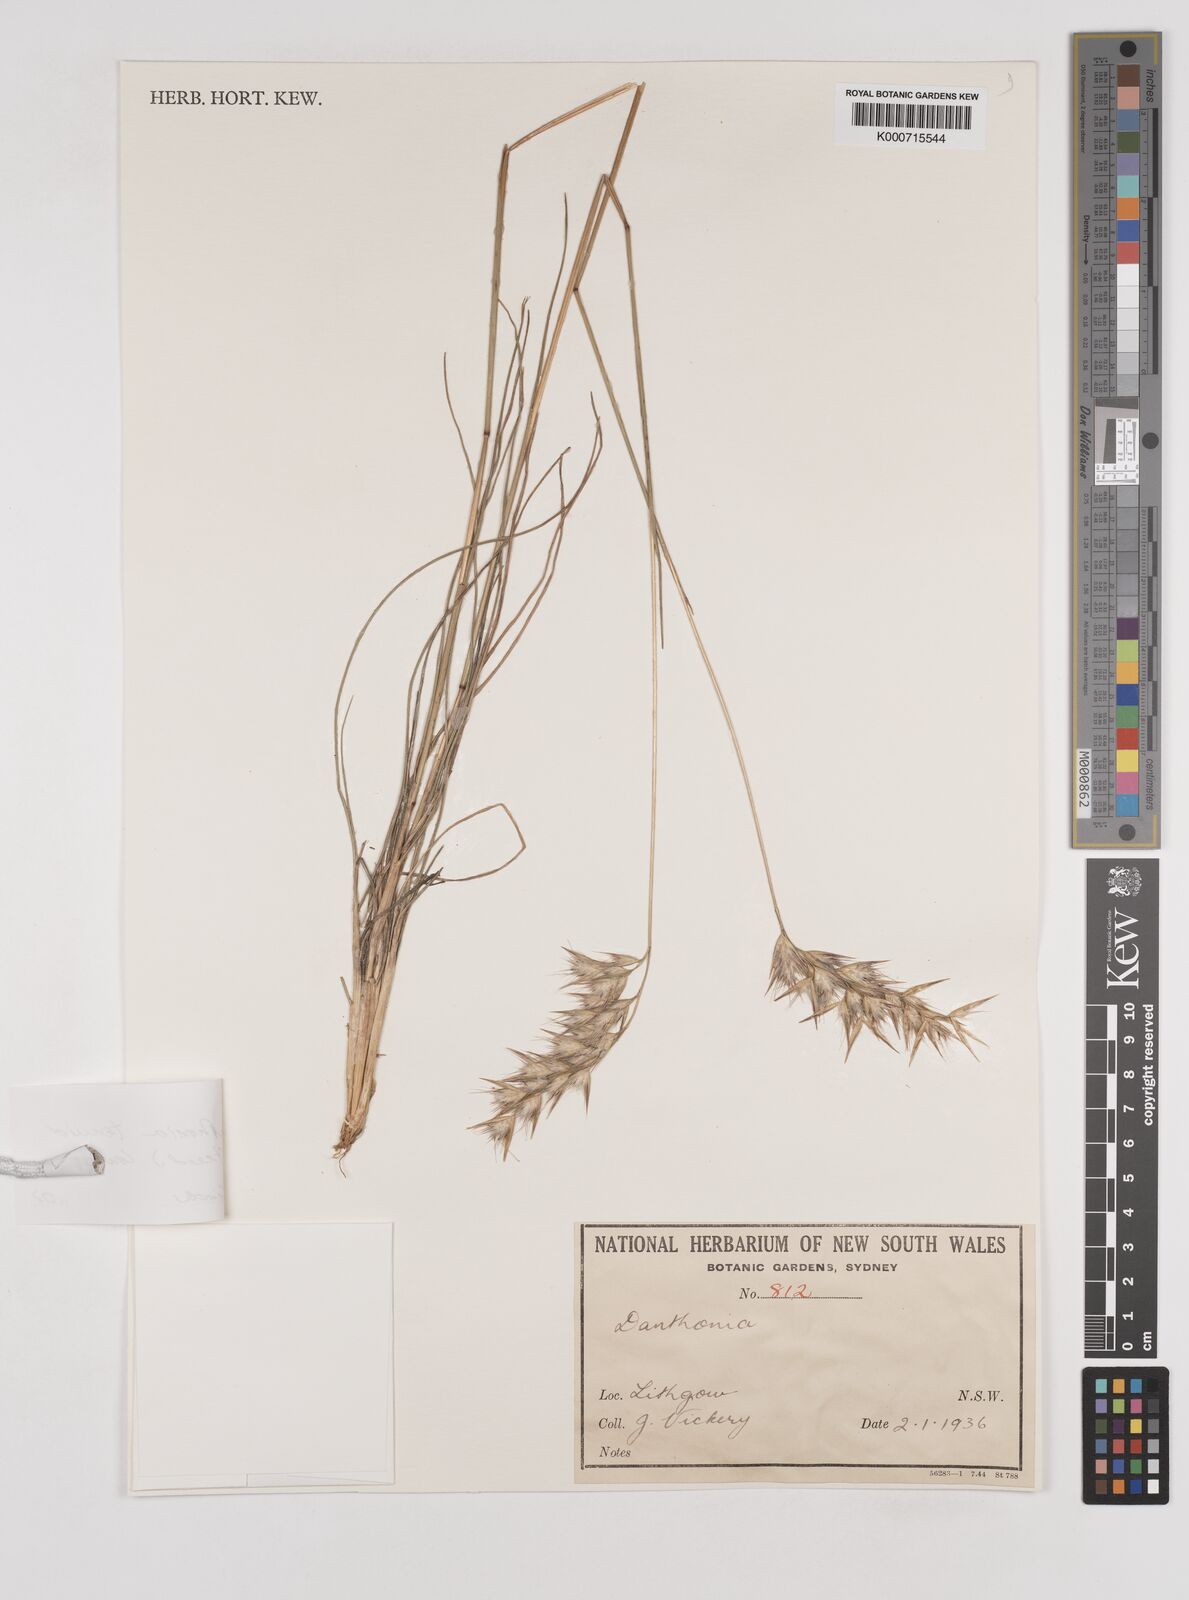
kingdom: Plantae
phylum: Tracheophyta
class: Liliopsida
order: Poales
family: Poaceae
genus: Rytidosperma
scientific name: Rytidosperma tenuius
